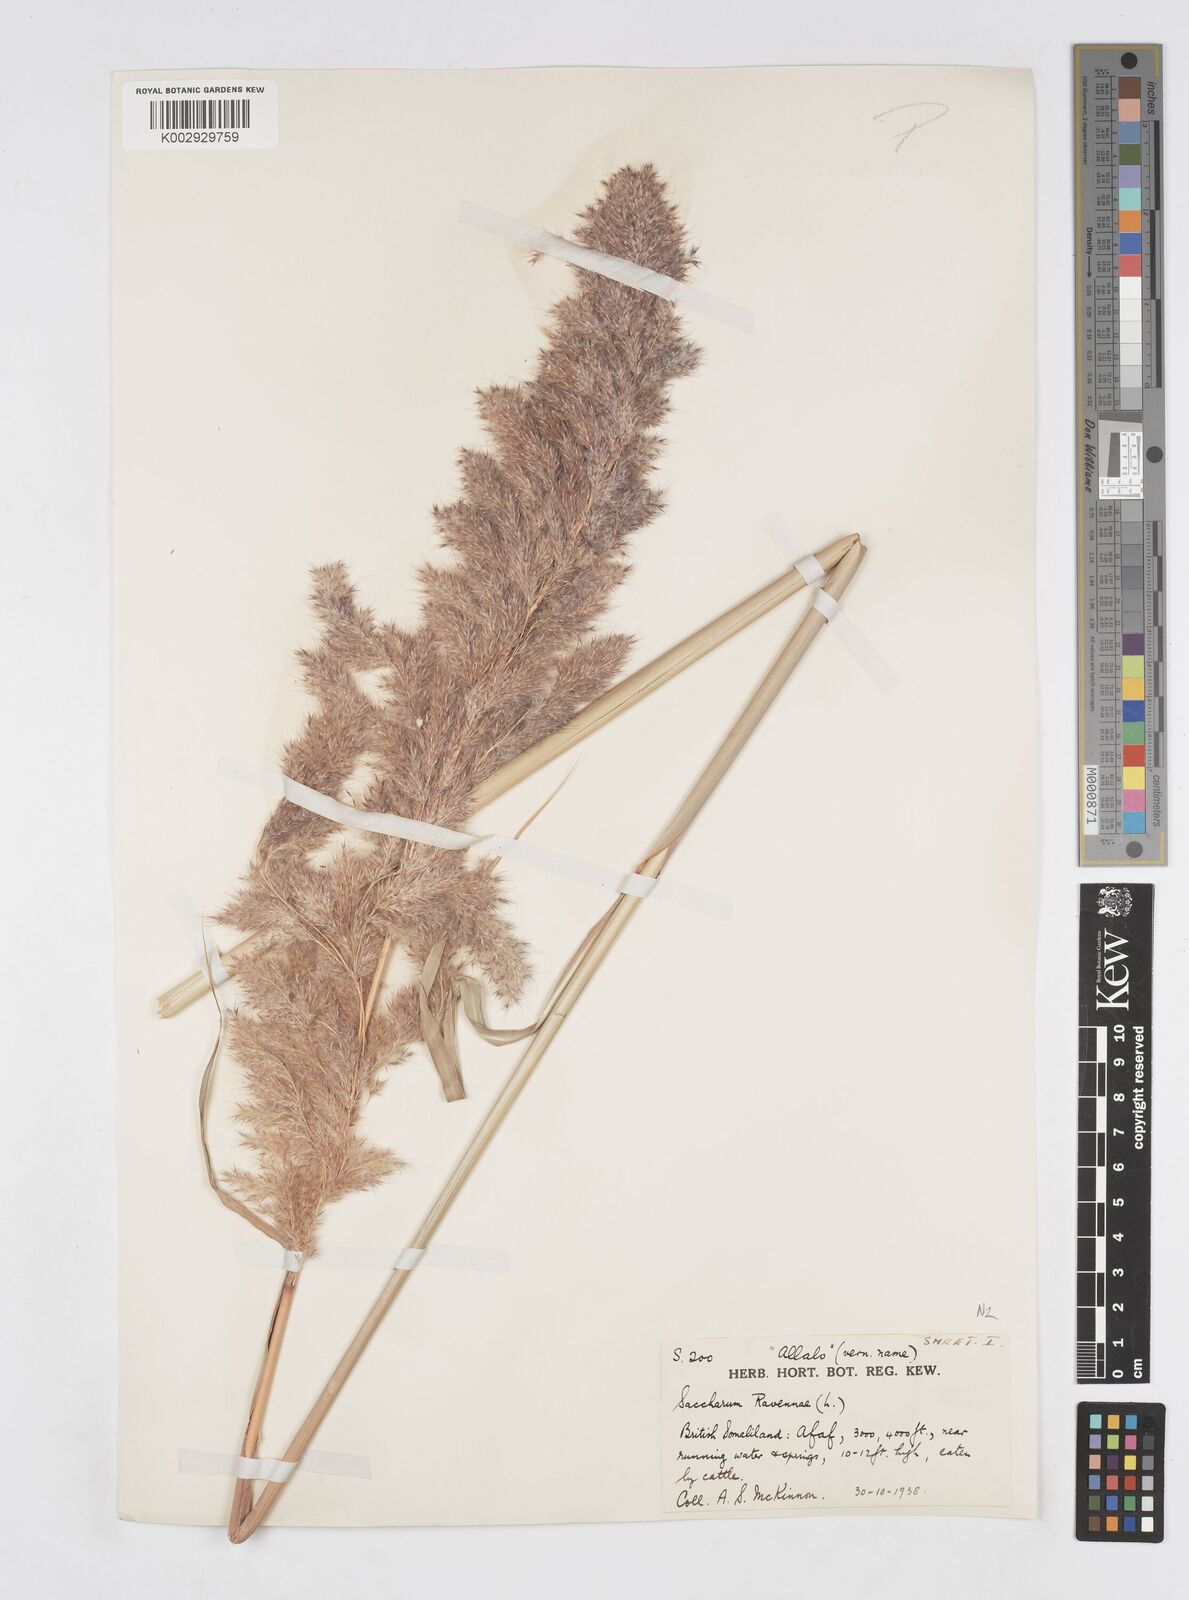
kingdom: Plantae
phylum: Tracheophyta
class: Liliopsida
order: Poales
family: Poaceae
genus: Tripidium
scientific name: Tripidium ravennae
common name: Ravenna grass
